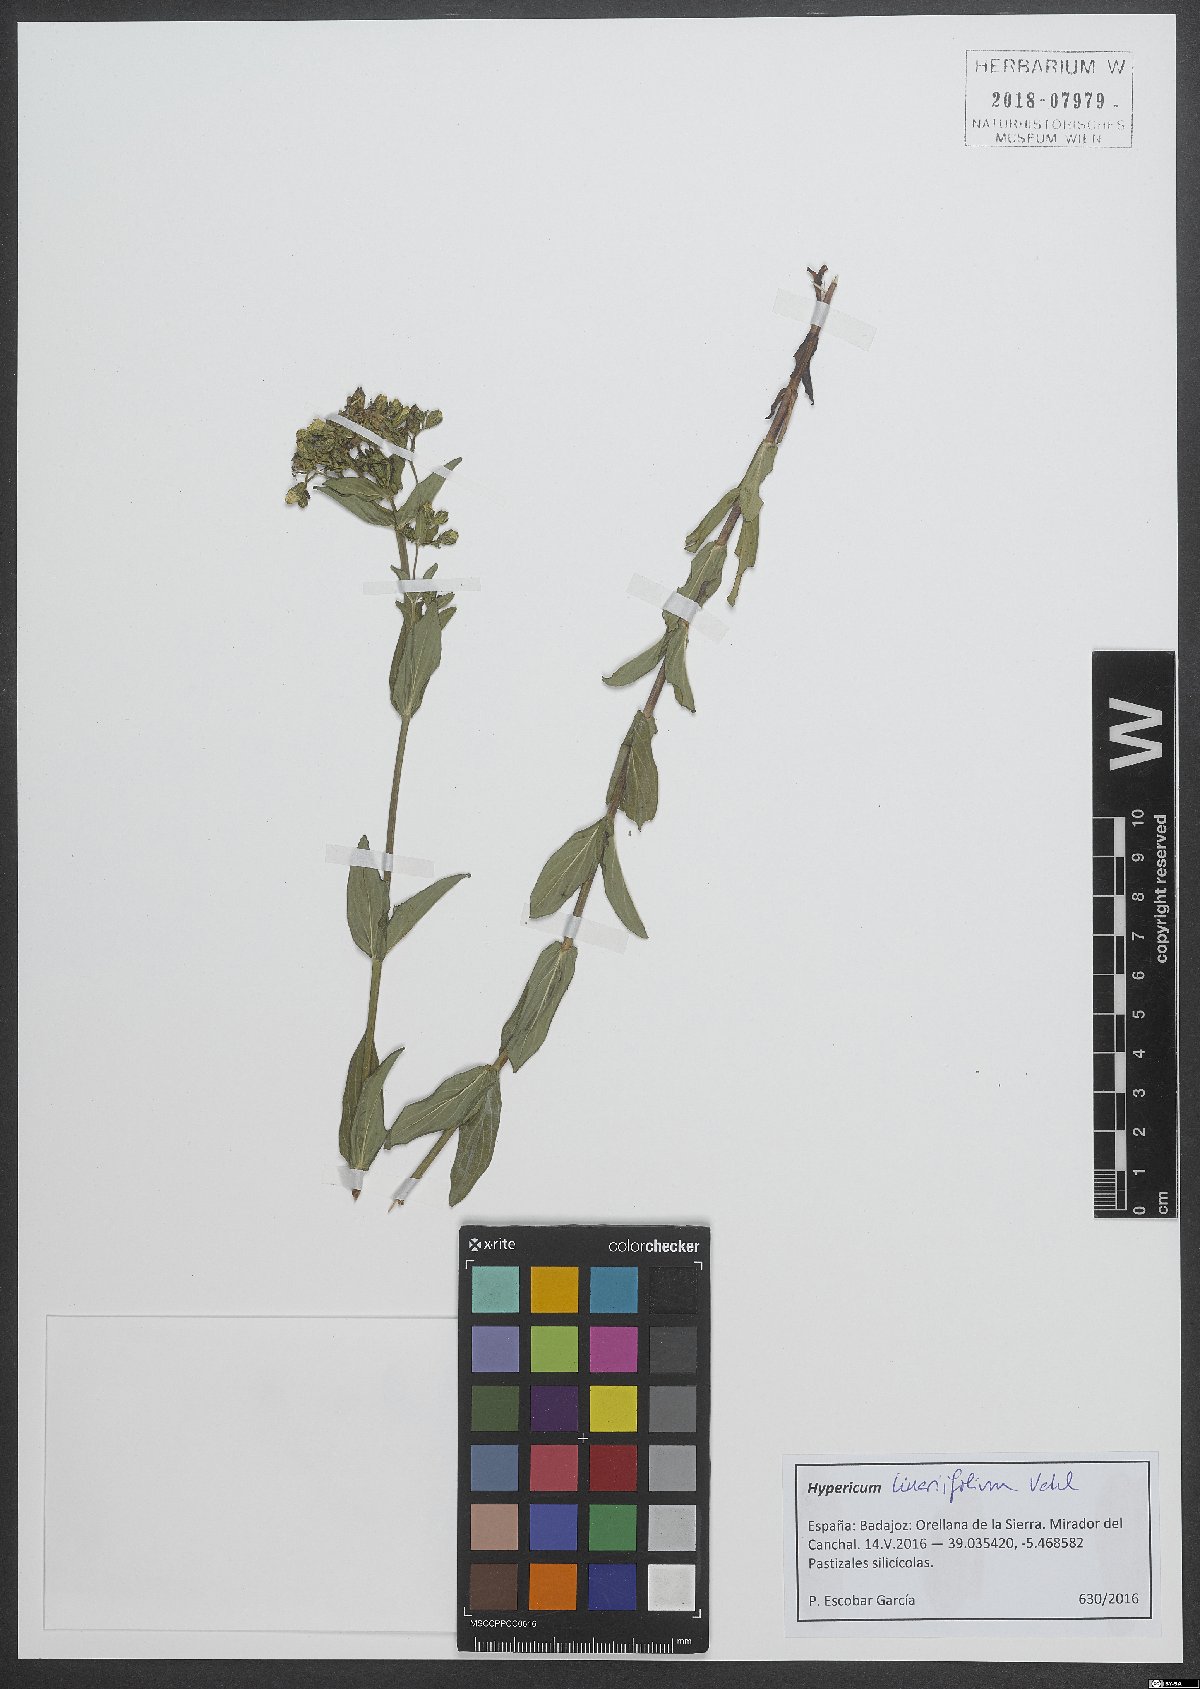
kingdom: Plantae
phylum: Tracheophyta
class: Magnoliopsida
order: Malpighiales
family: Hypericaceae
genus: Hypericum
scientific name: Hypericum linariifolium
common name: Toadflax-leaved st. john's-wort
